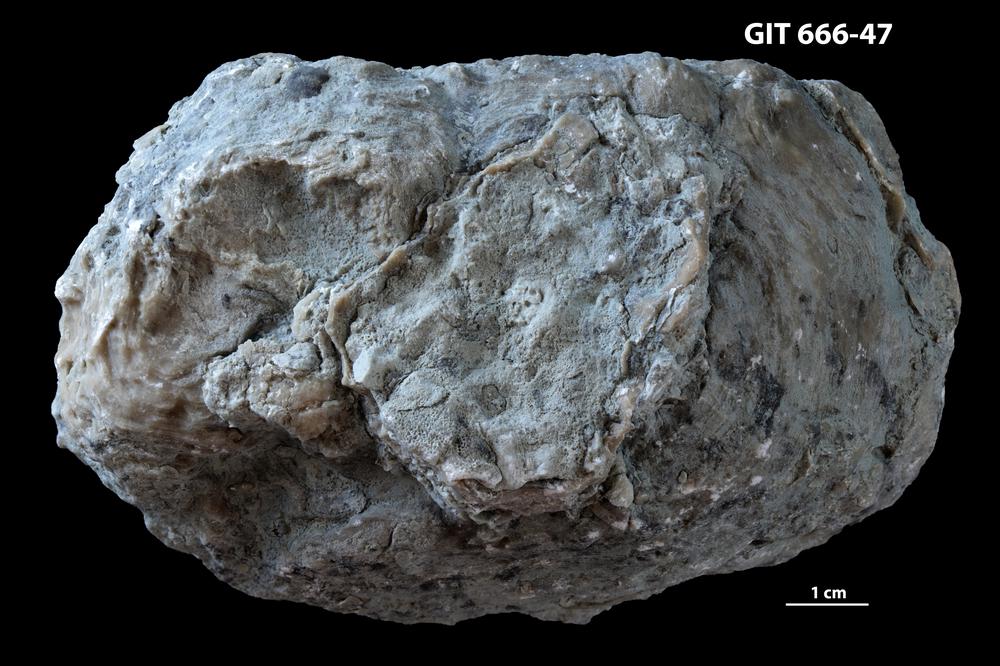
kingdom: Animalia
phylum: Porifera
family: Clathrodictyidae
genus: Clathrodictyon
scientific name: Clathrodictyon boreale
